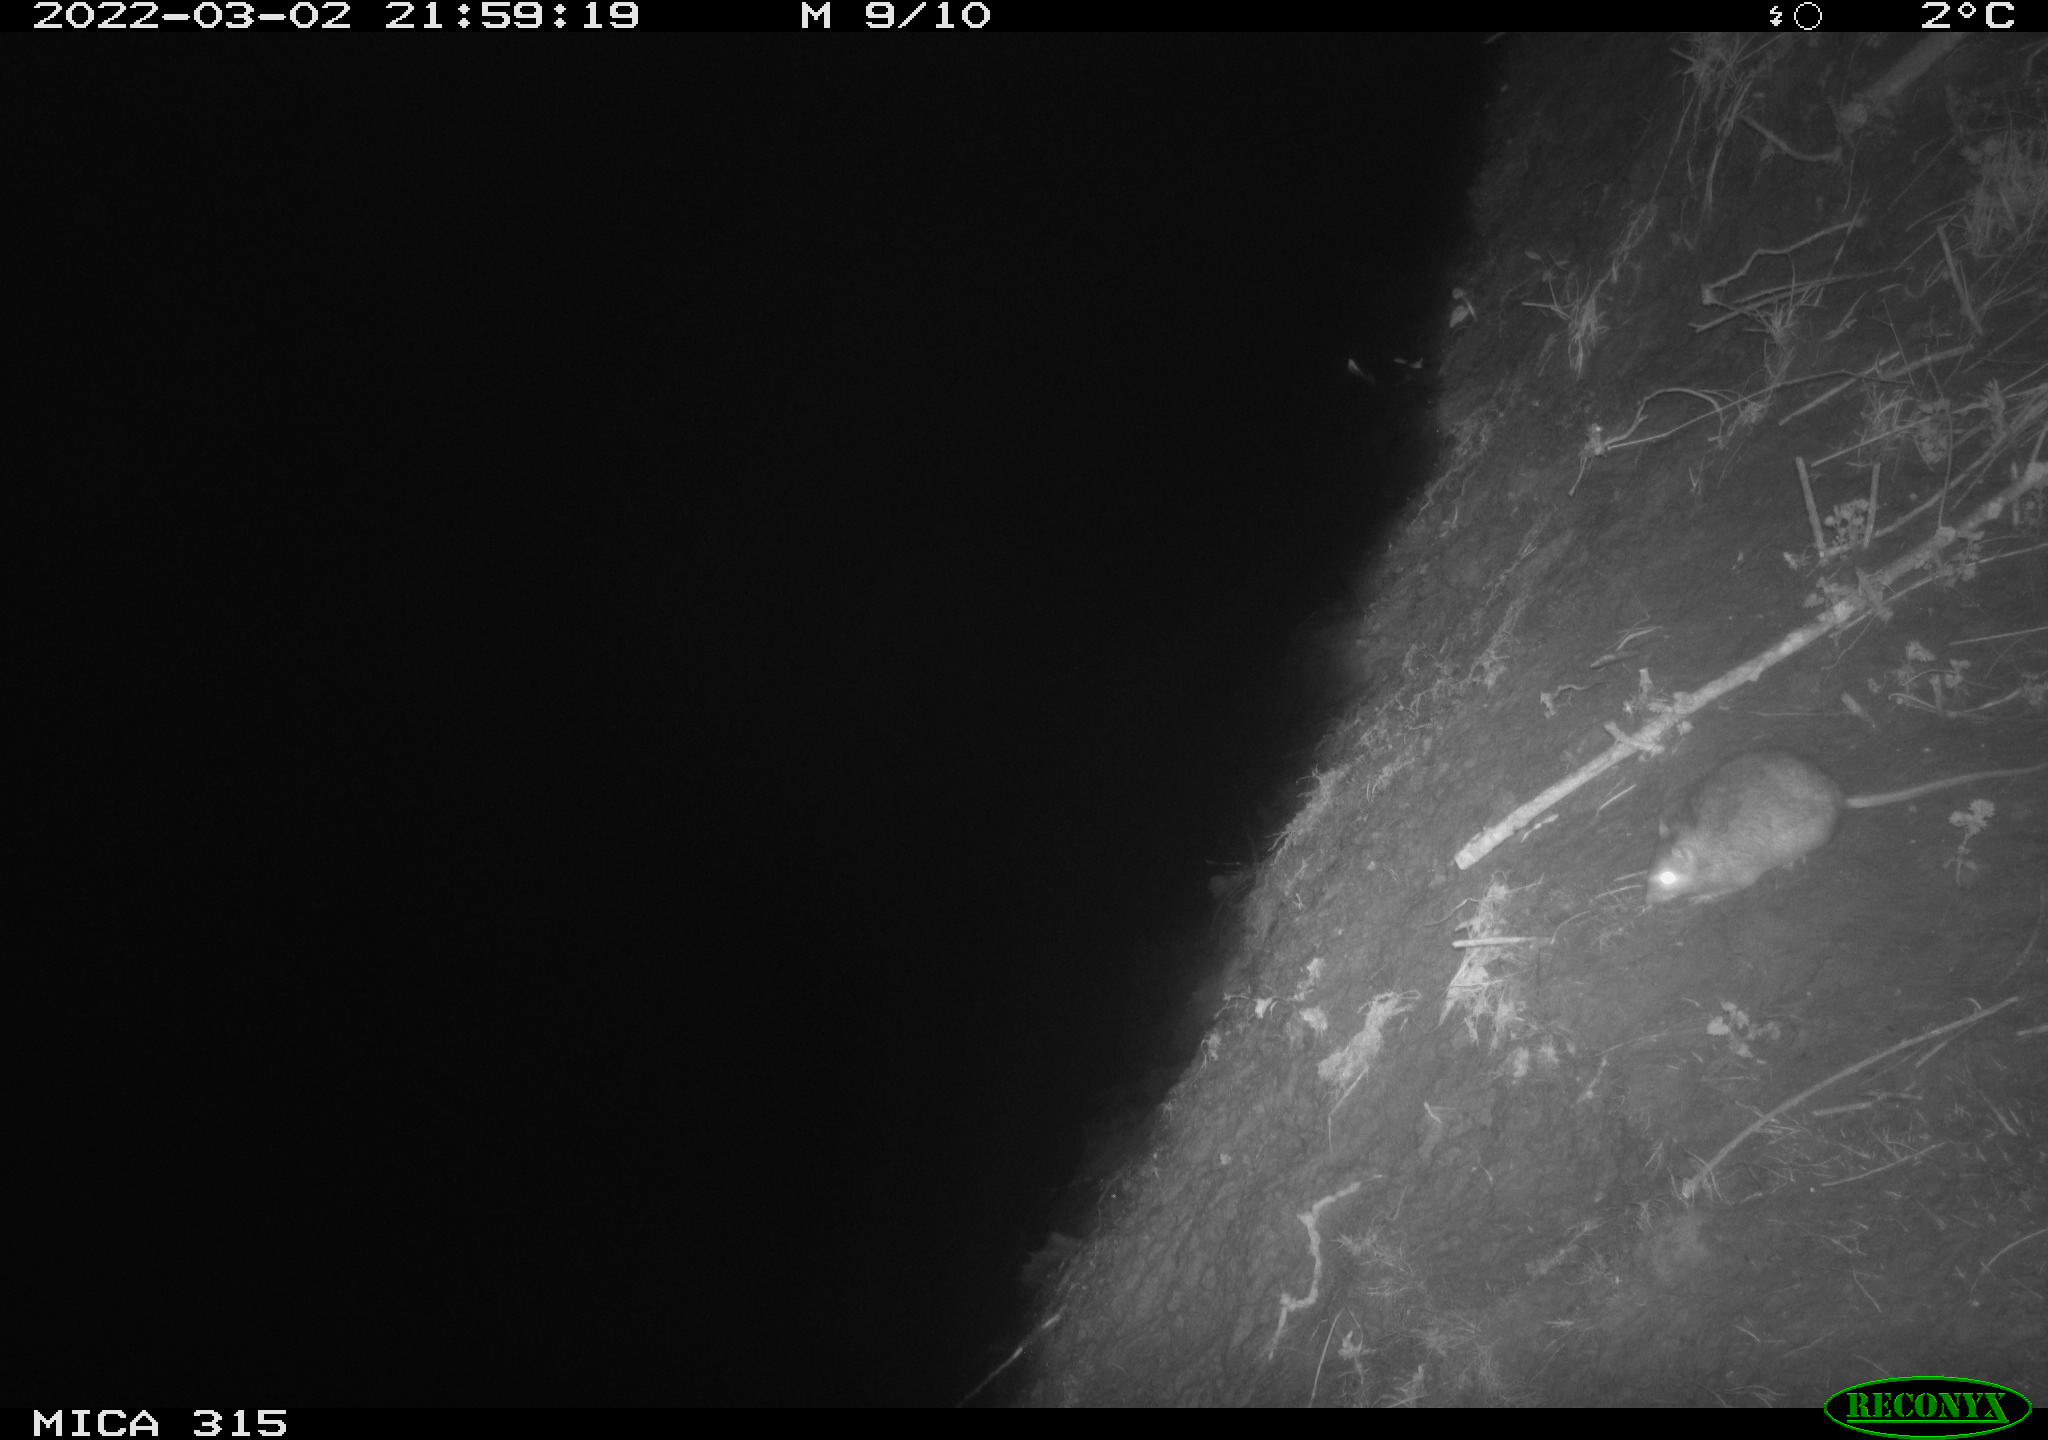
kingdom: Animalia
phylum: Chordata
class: Mammalia
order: Rodentia
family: Muridae
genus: Rattus
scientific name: Rattus norvegicus
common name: Brown rat
